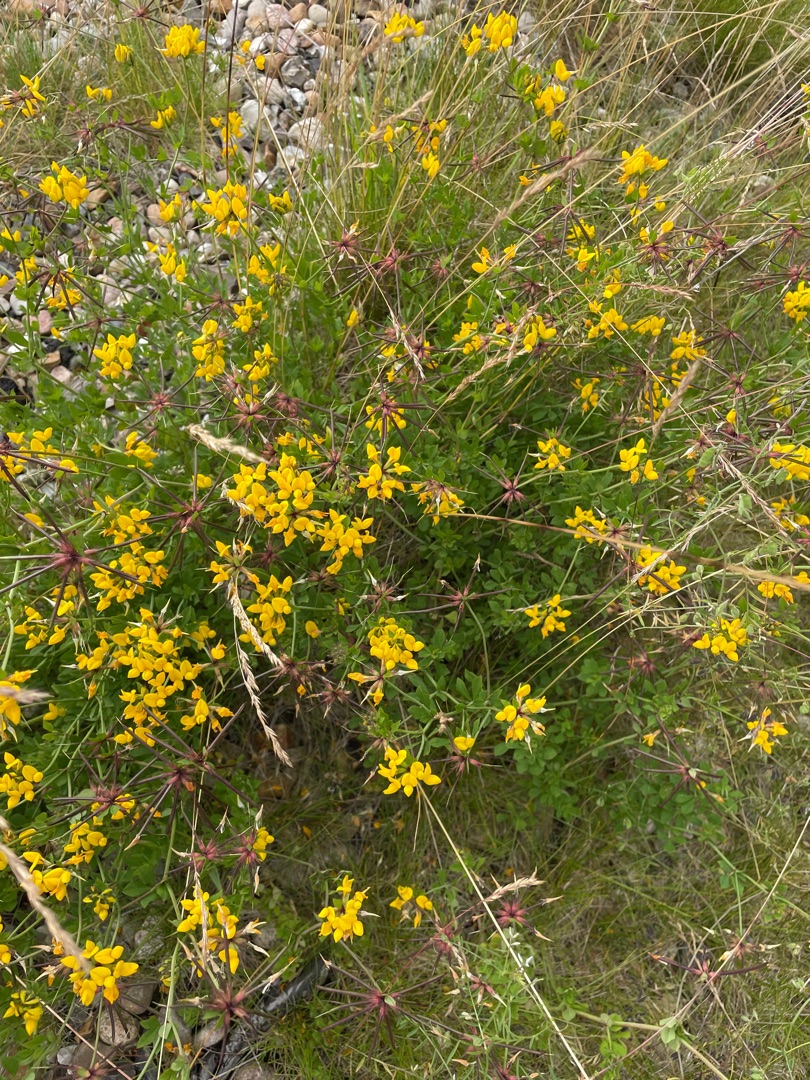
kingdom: Plantae
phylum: Tracheophyta
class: Magnoliopsida
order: Fabales
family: Fabaceae
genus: Lotus
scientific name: Lotus corniculatus
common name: Almindelig kællingetand
